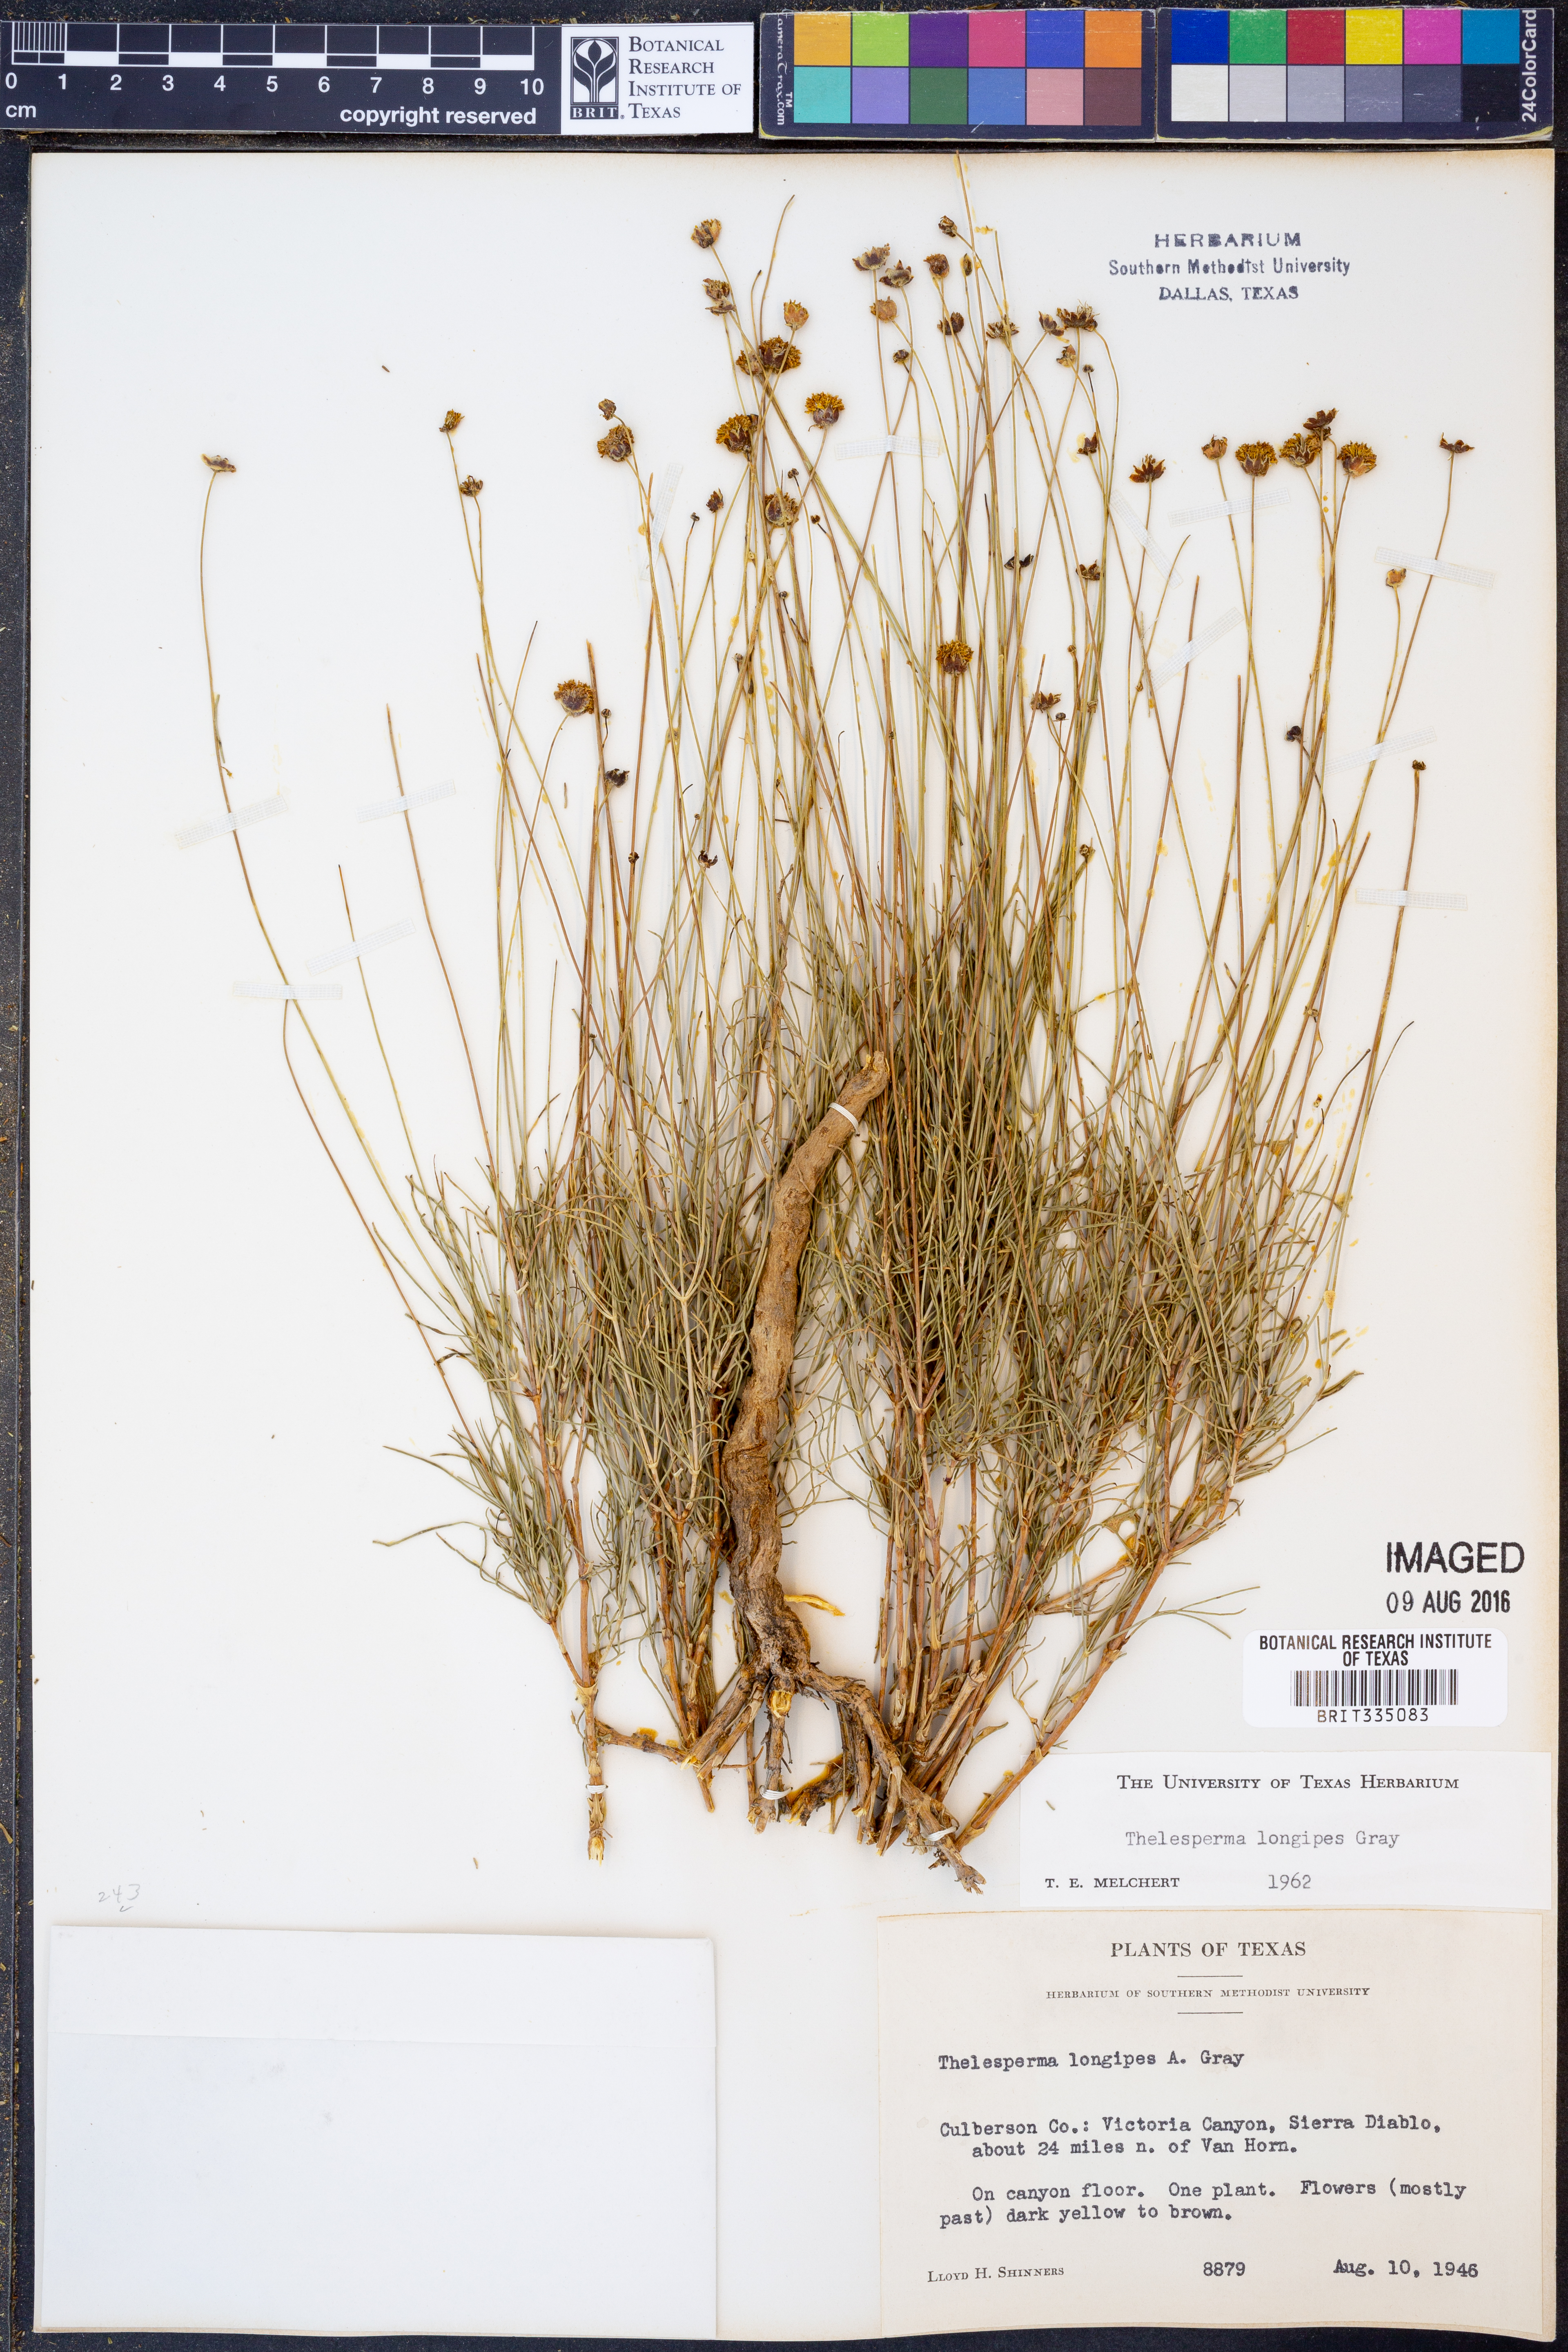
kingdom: Plantae
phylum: Tracheophyta
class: Magnoliopsida
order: Asterales
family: Asteraceae
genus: Thelesperma
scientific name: Thelesperma longipes
